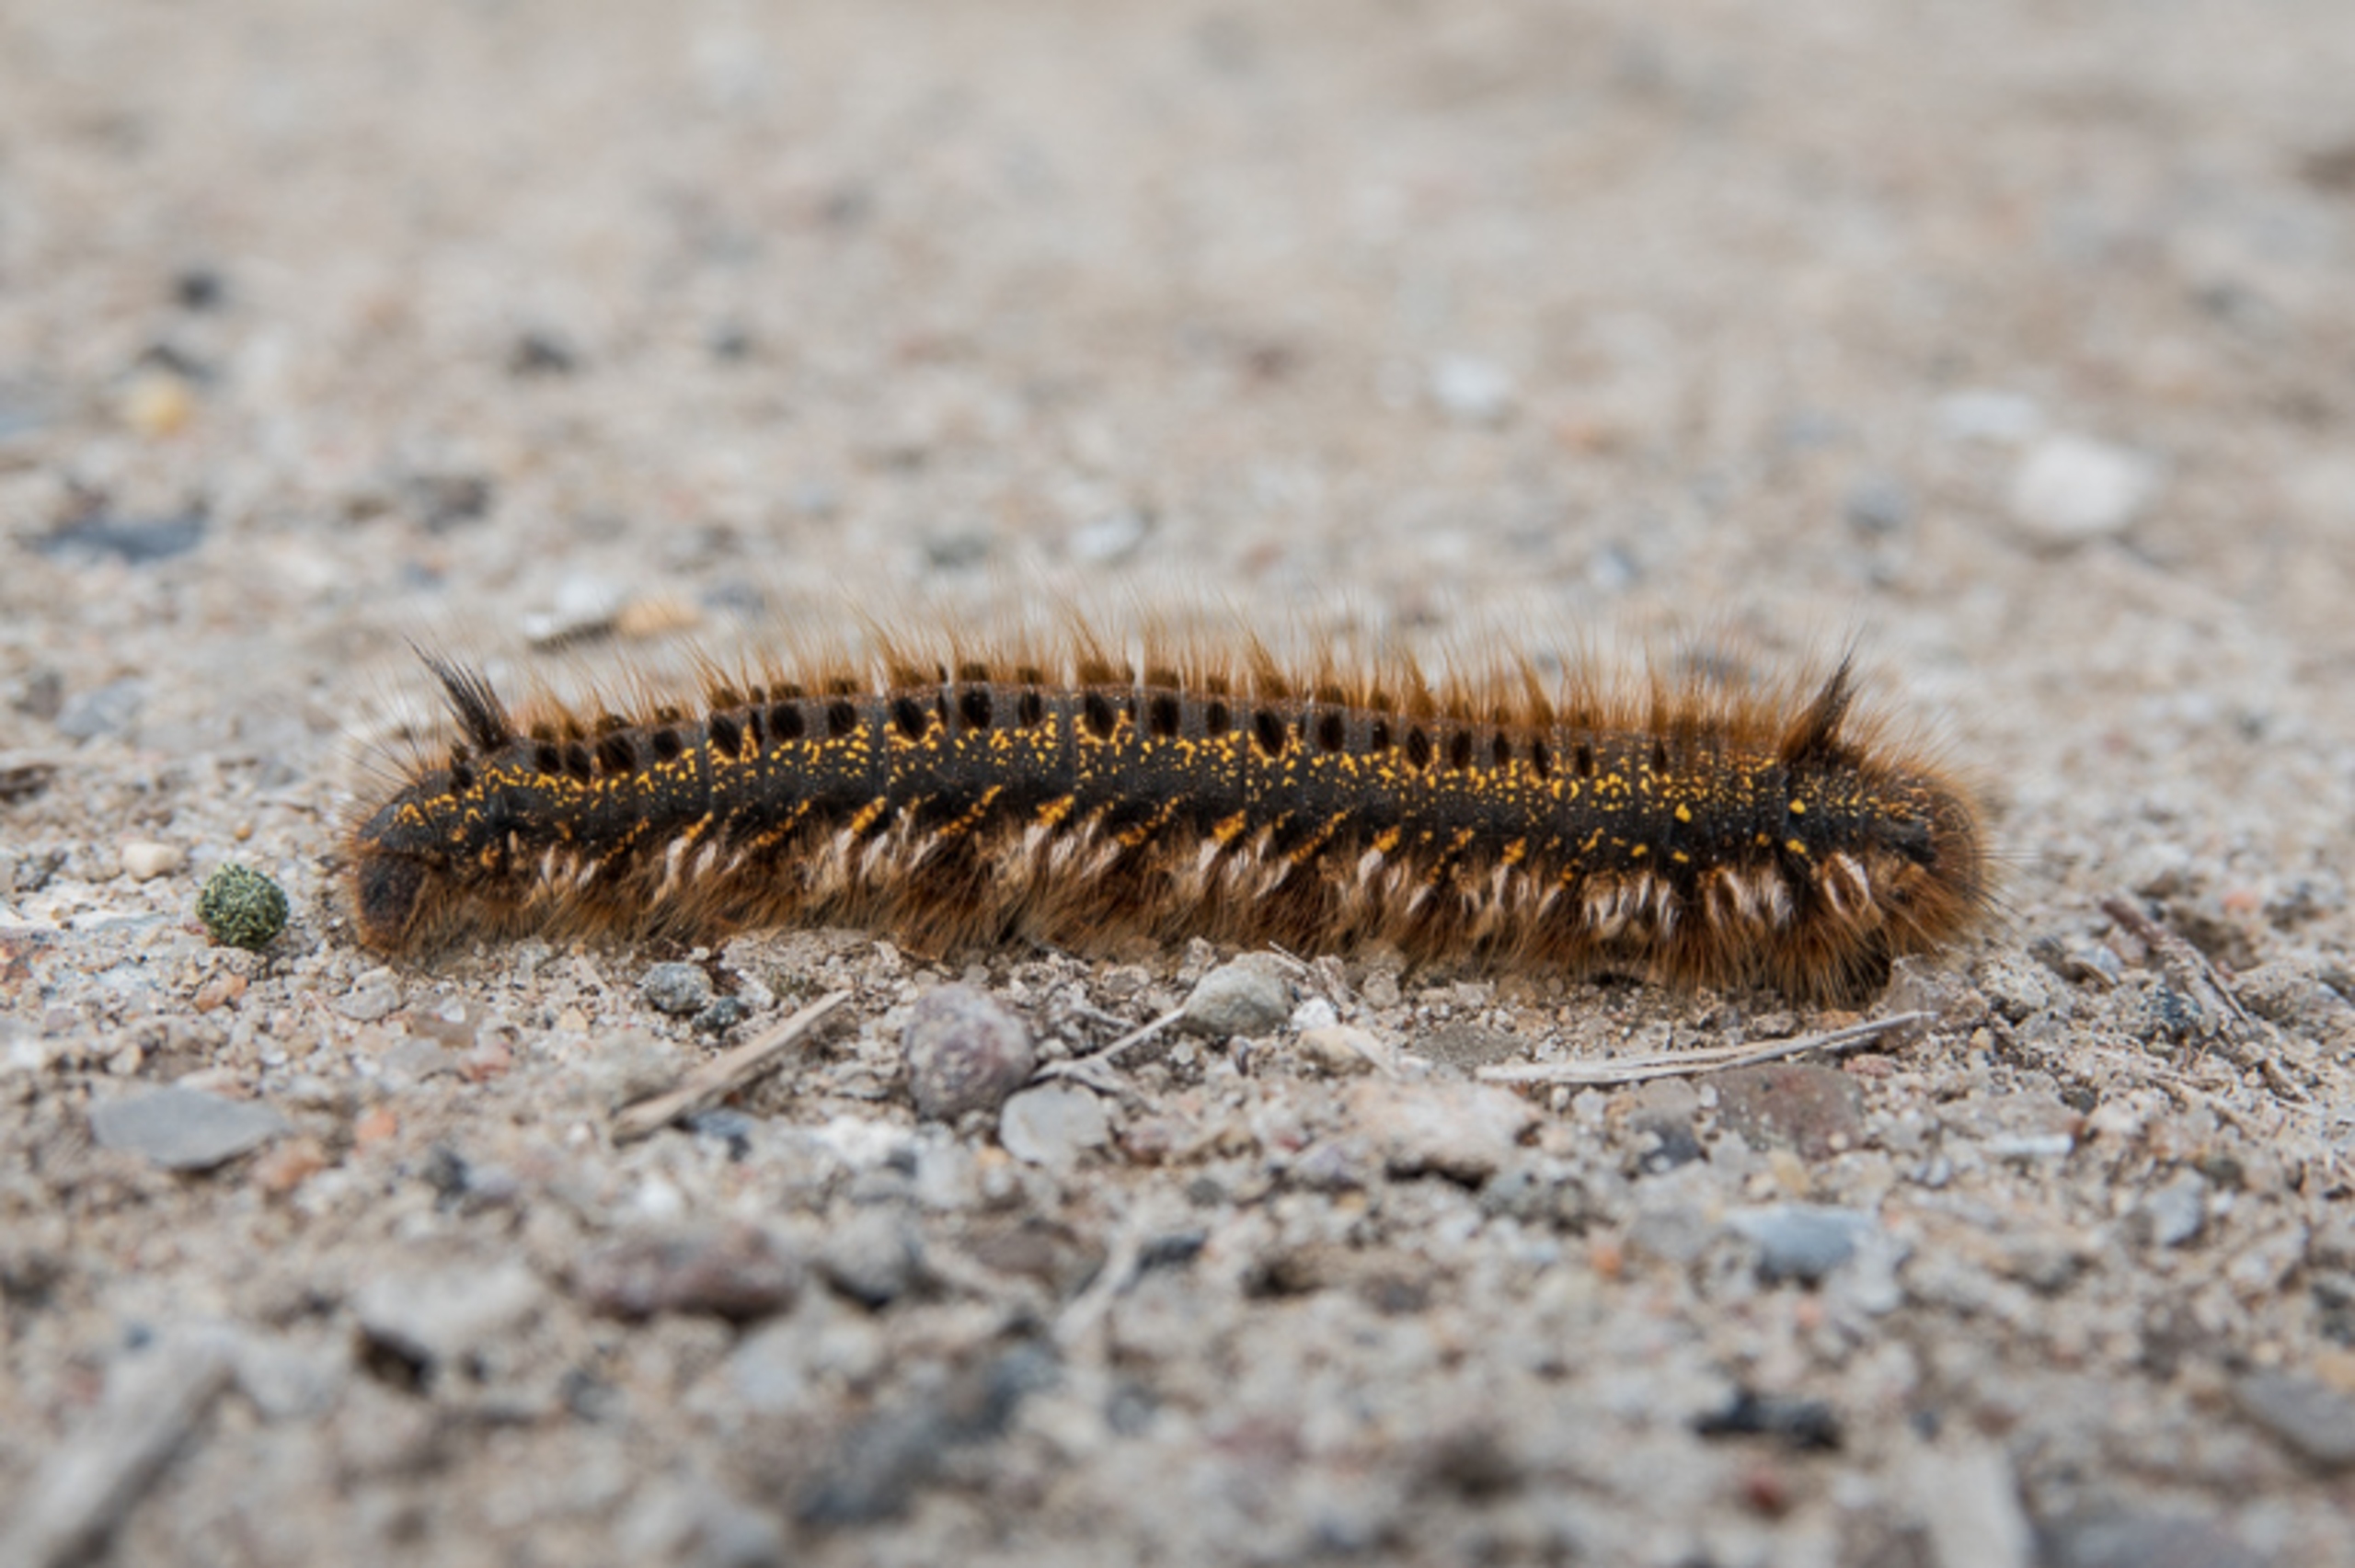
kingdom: Animalia
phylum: Arthropoda
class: Insecta
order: Lepidoptera
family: Lasiocampidae
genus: Euthrix
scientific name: Euthrix potatoria
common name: Græsspinder
